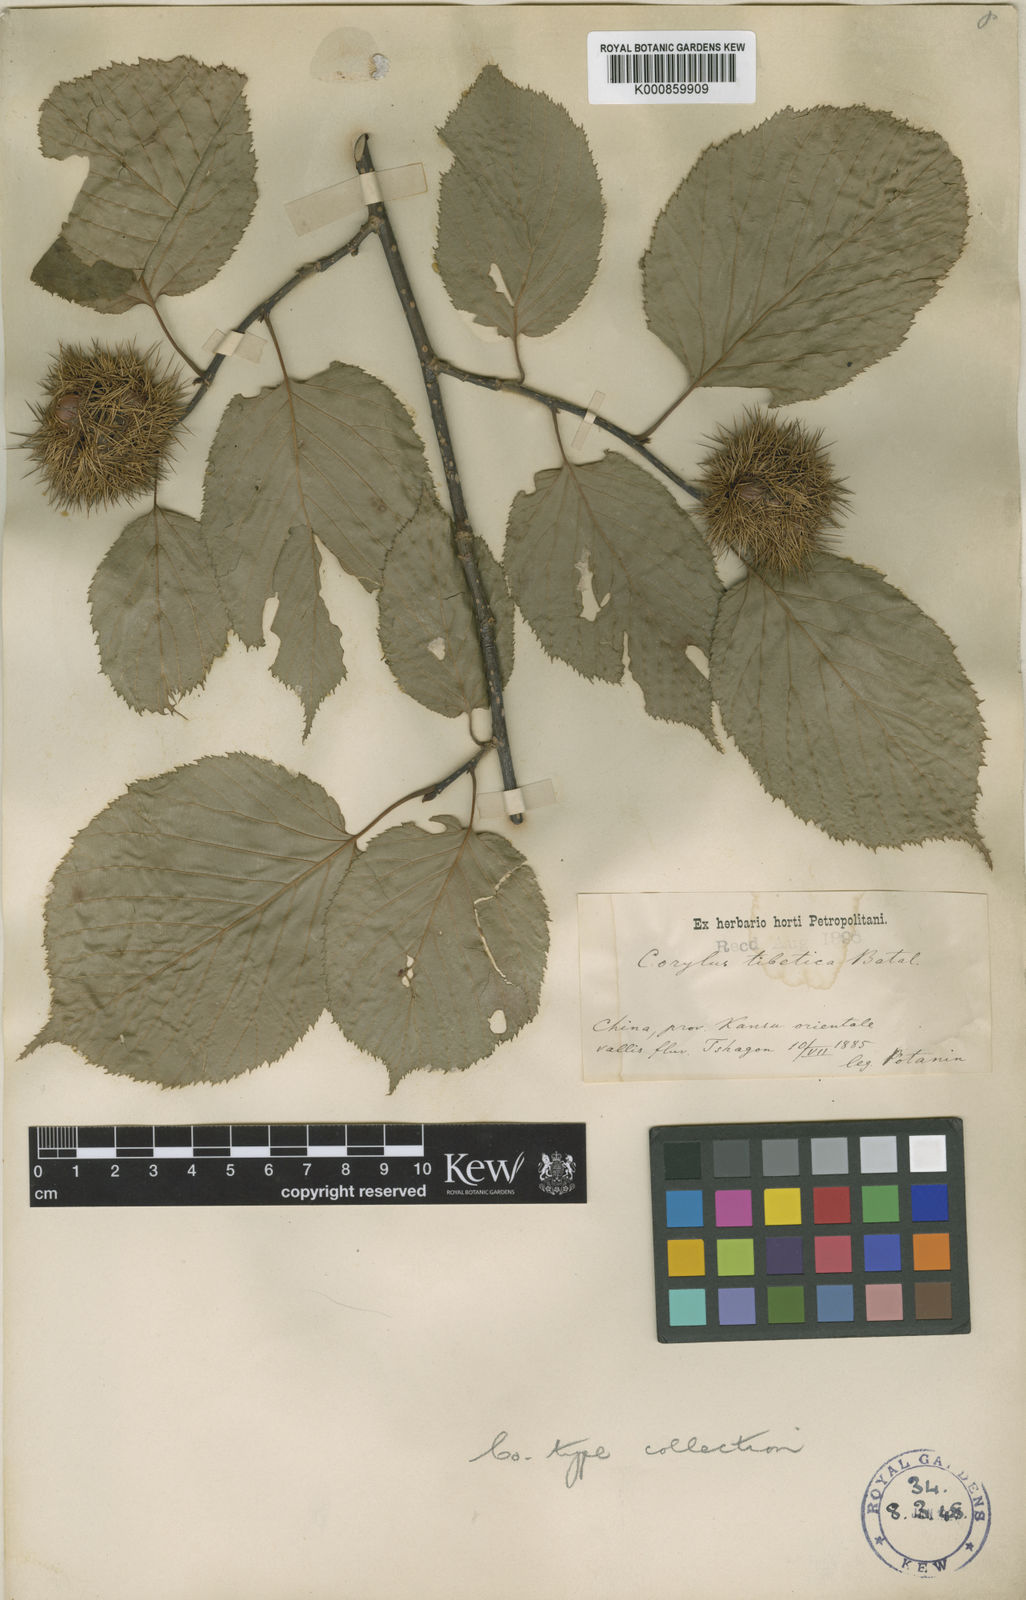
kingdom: Plantae
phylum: Tracheophyta
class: Magnoliopsida
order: Fagales
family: Betulaceae
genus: Corylus
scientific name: Corylus ferox
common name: Himalayan hazel
